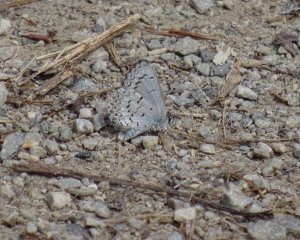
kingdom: Animalia
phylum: Arthropoda
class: Insecta
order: Lepidoptera
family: Lycaenidae
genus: Celastrina
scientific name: Celastrina lucia
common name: Northern Spring Azure
